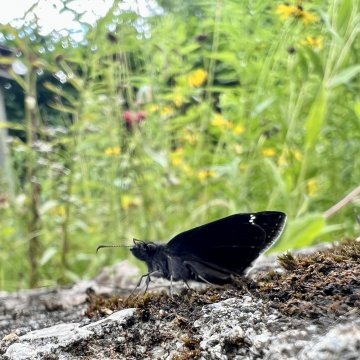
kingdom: Animalia
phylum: Arthropoda
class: Insecta
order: Lepidoptera
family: Hesperiidae
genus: Gesta
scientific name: Gesta
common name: Wild Indigo Duskywing
